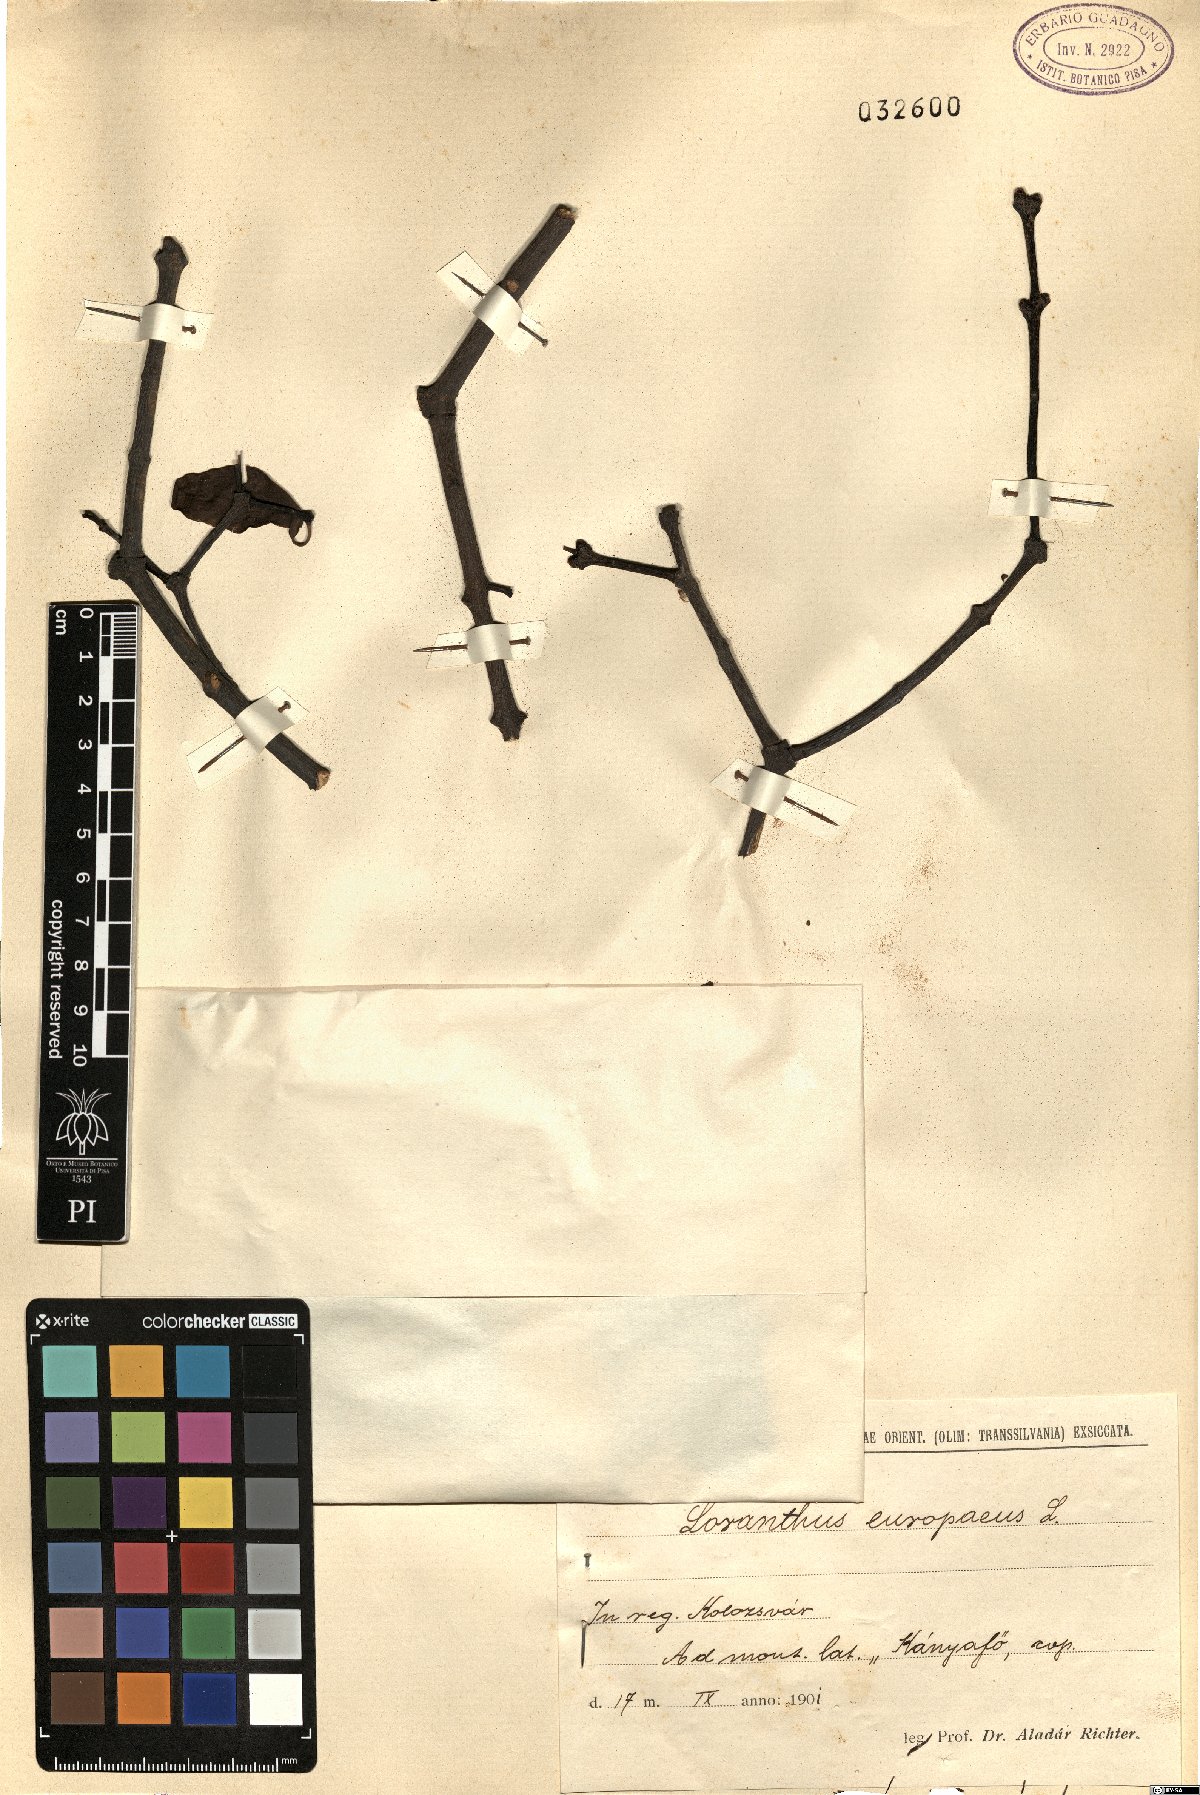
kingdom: Plantae
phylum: Tracheophyta
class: Magnoliopsida
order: Santalales
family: Loranthaceae
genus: Loranthus
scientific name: Loranthus europaeus
